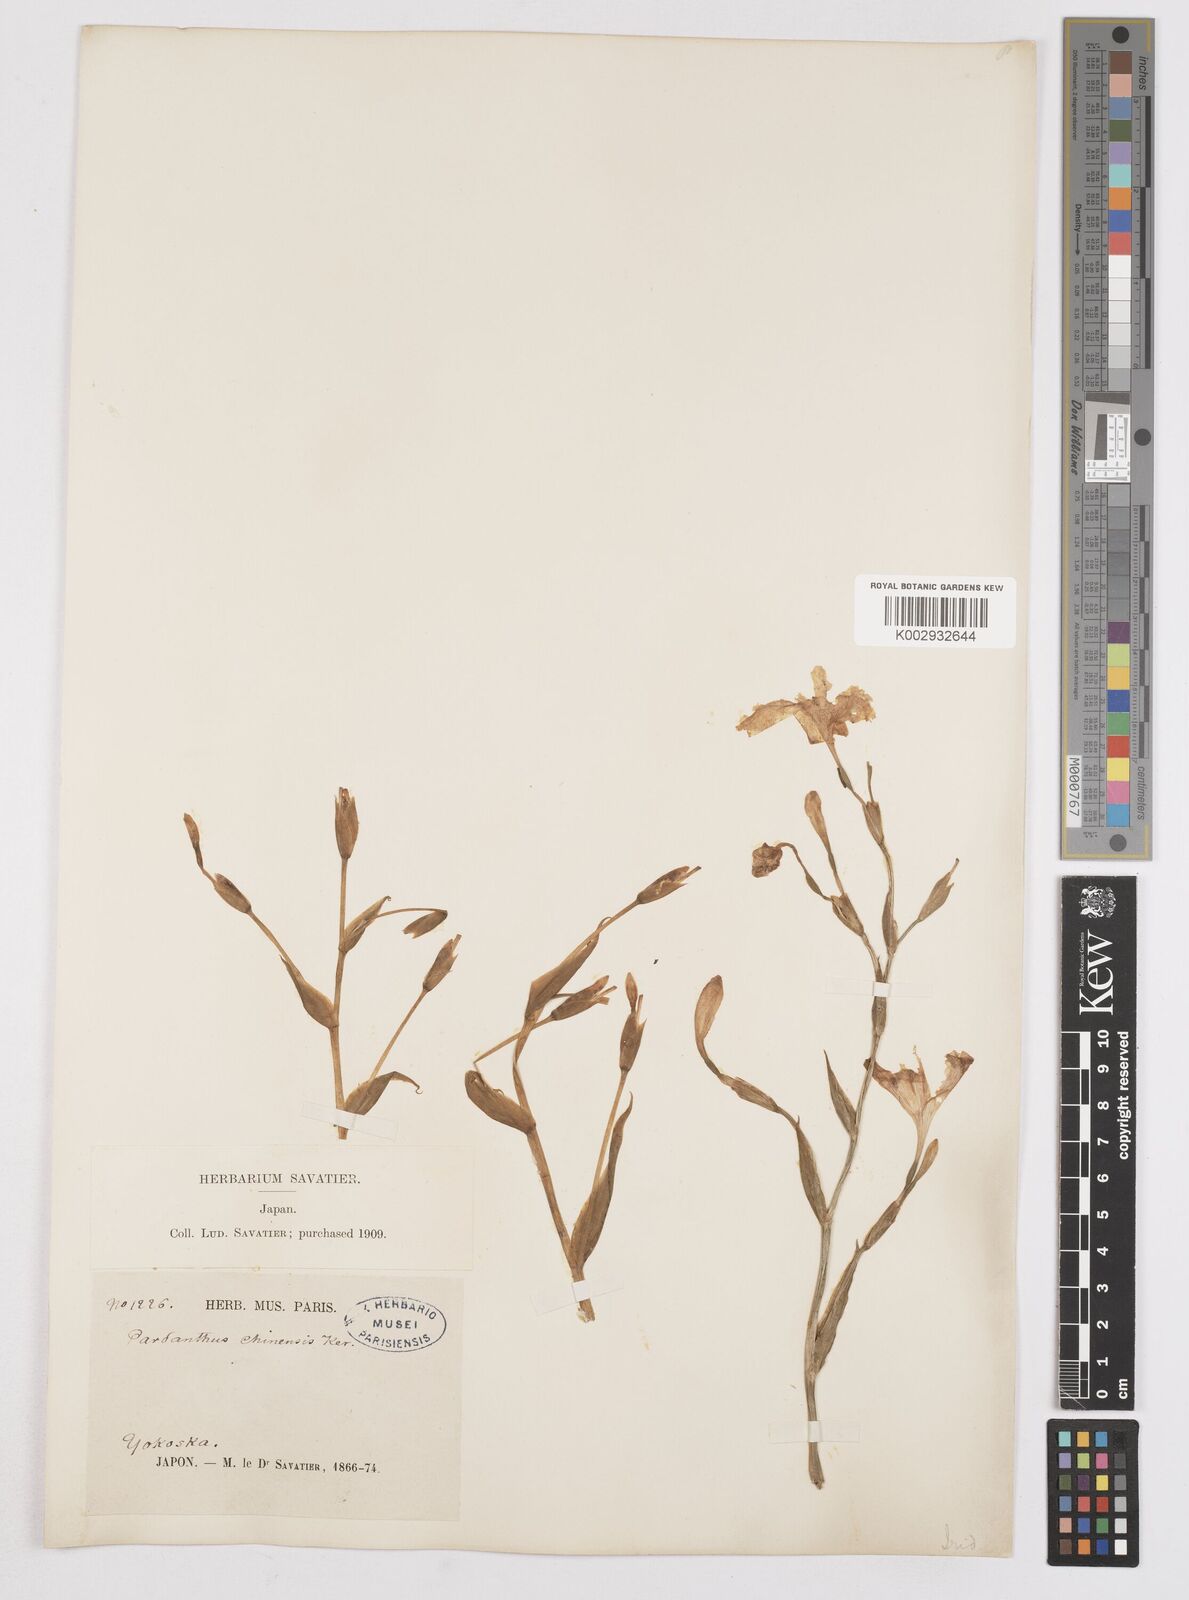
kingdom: Plantae
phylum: Tracheophyta
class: Liliopsida
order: Asparagales
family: Iridaceae
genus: Iris
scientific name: Iris
